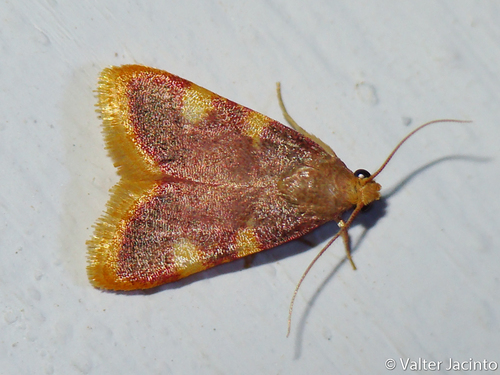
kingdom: Animalia
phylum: Arthropoda
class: Insecta
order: Lepidoptera
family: Pyralidae
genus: Hypsopygia
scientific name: Hypsopygia costalis
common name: Gold triangle
